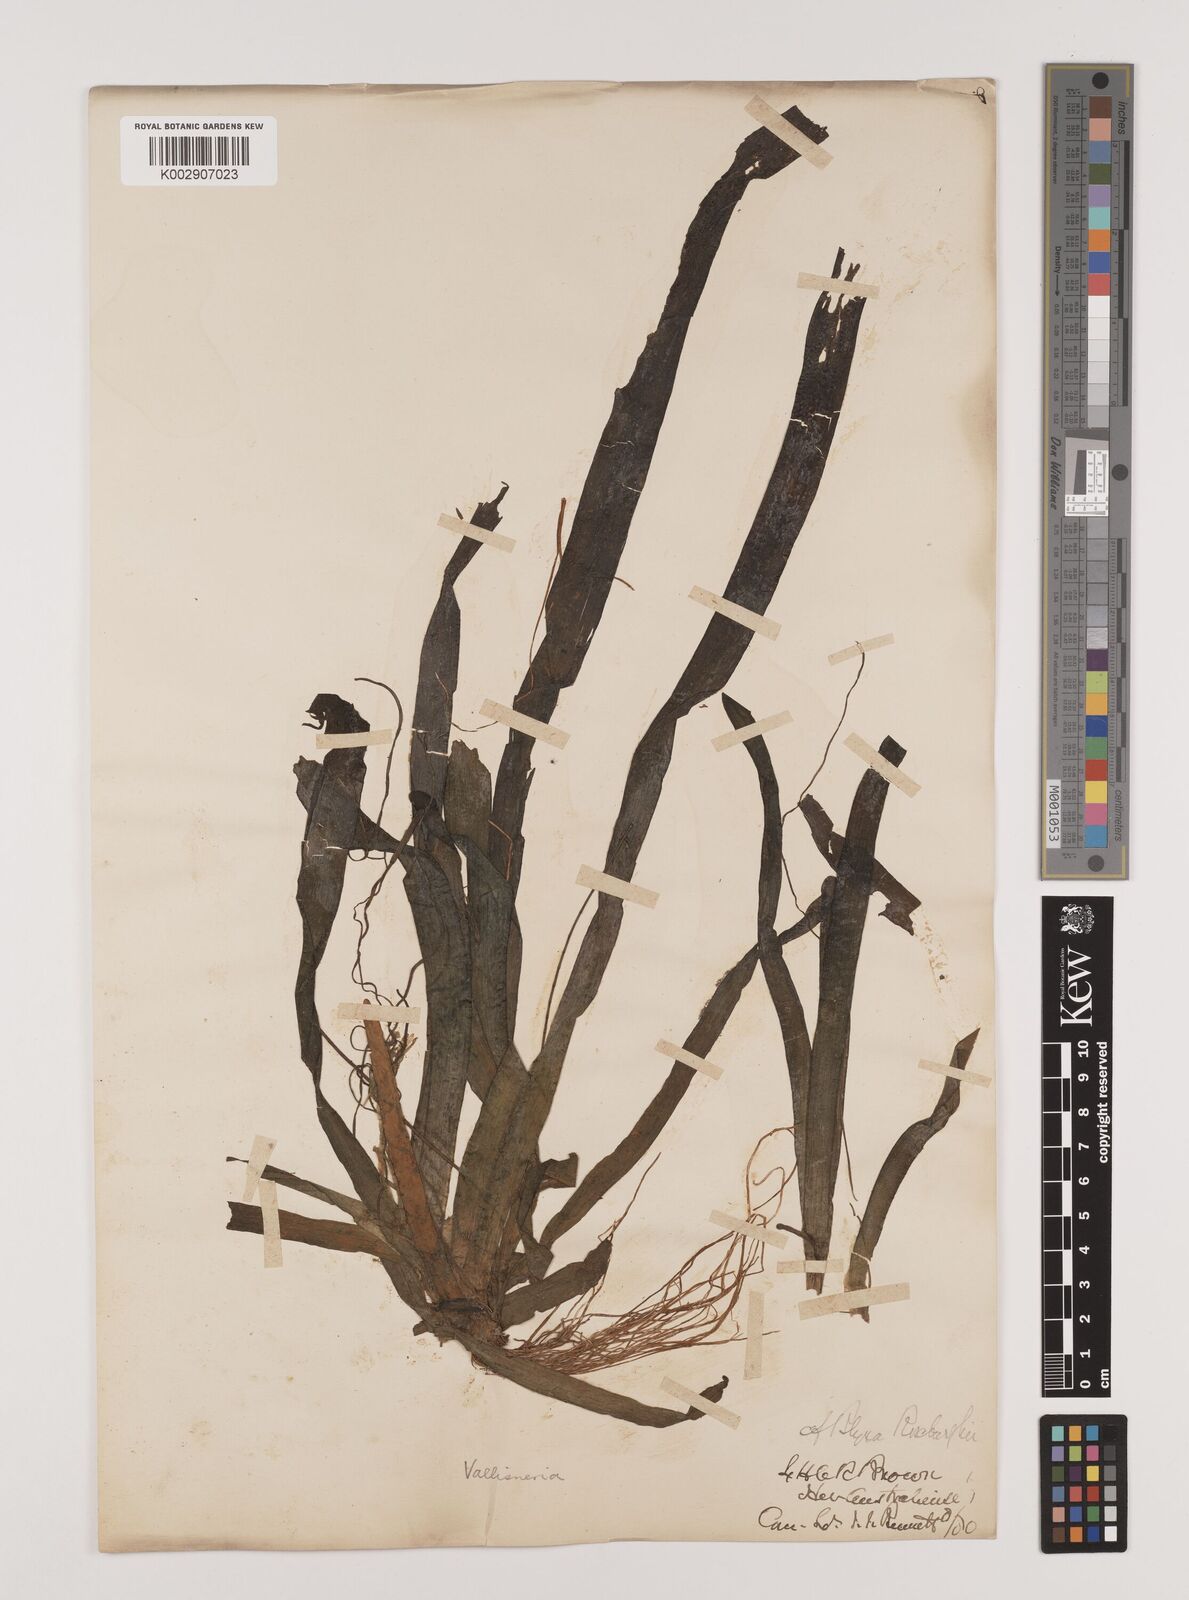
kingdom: Plantae
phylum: Tracheophyta
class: Liliopsida
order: Alismatales
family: Hydrocharitaceae
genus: Vallisneria
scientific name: Vallisneria spiralis
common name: Tapegrass
